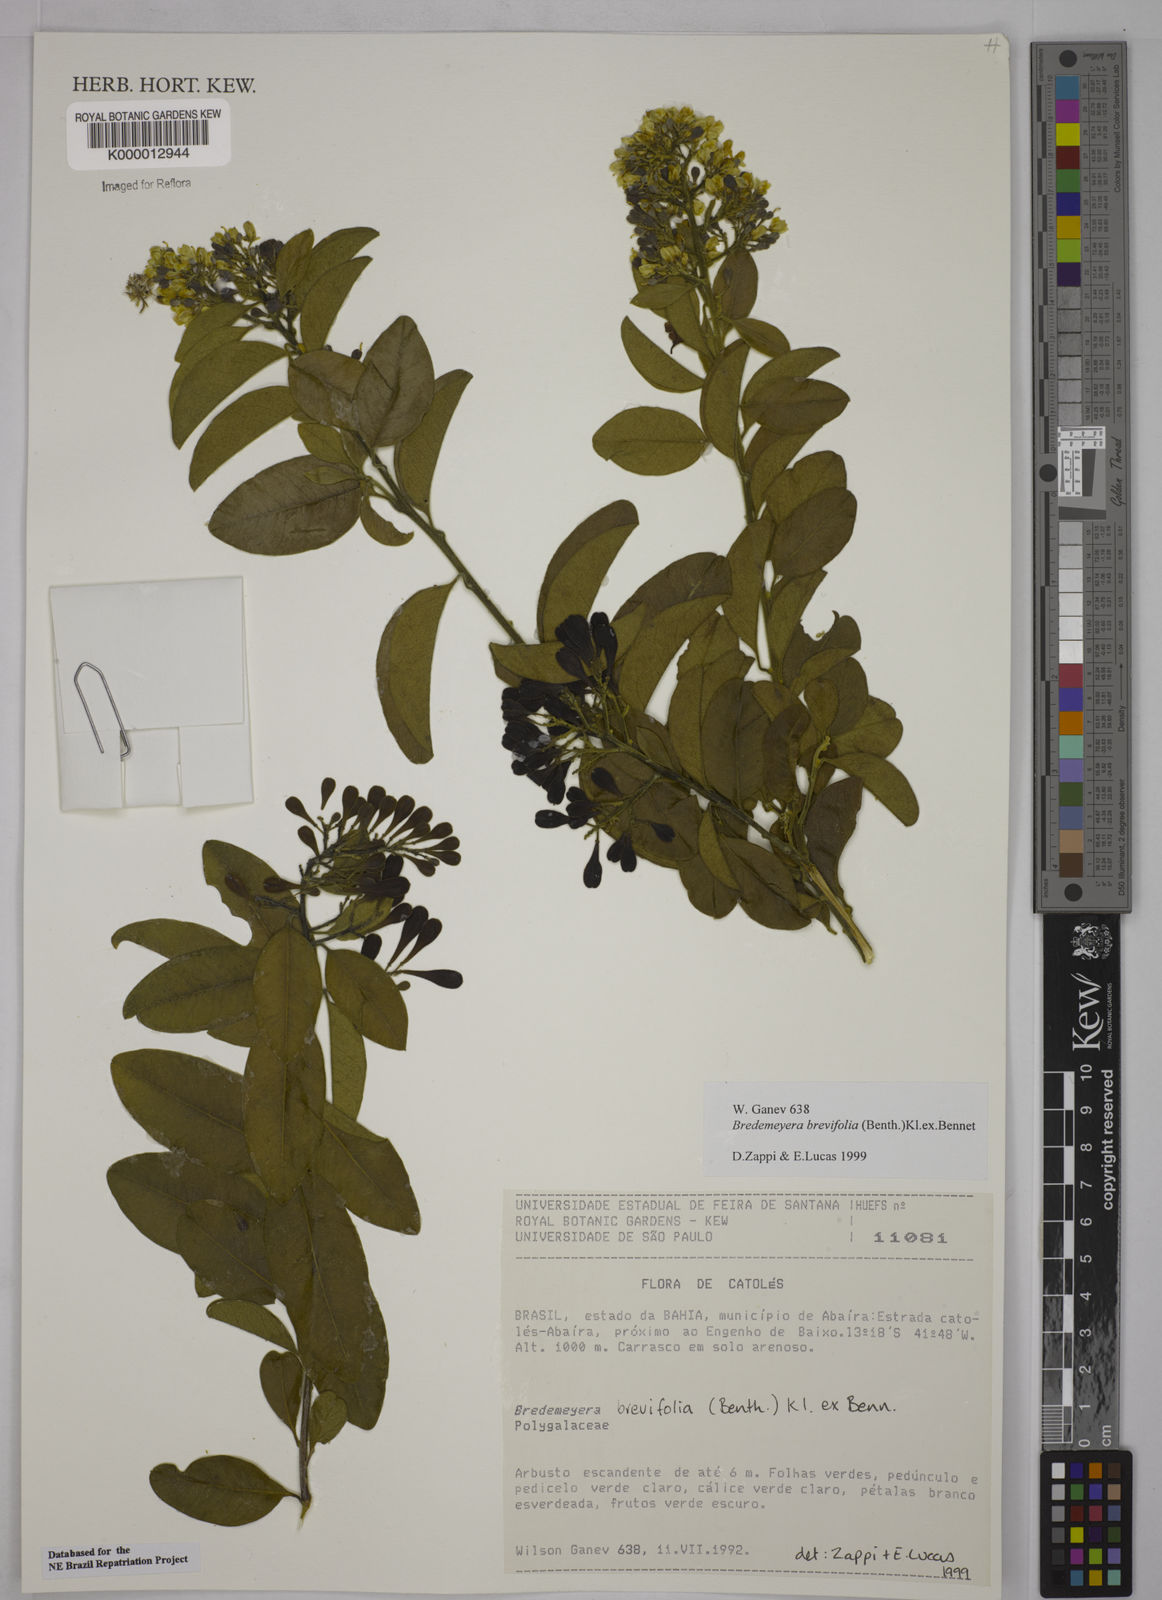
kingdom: Plantae
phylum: Tracheophyta
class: Magnoliopsida
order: Fabales
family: Polygalaceae
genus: Bredemeyera
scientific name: Bredemeyera brevifolia
